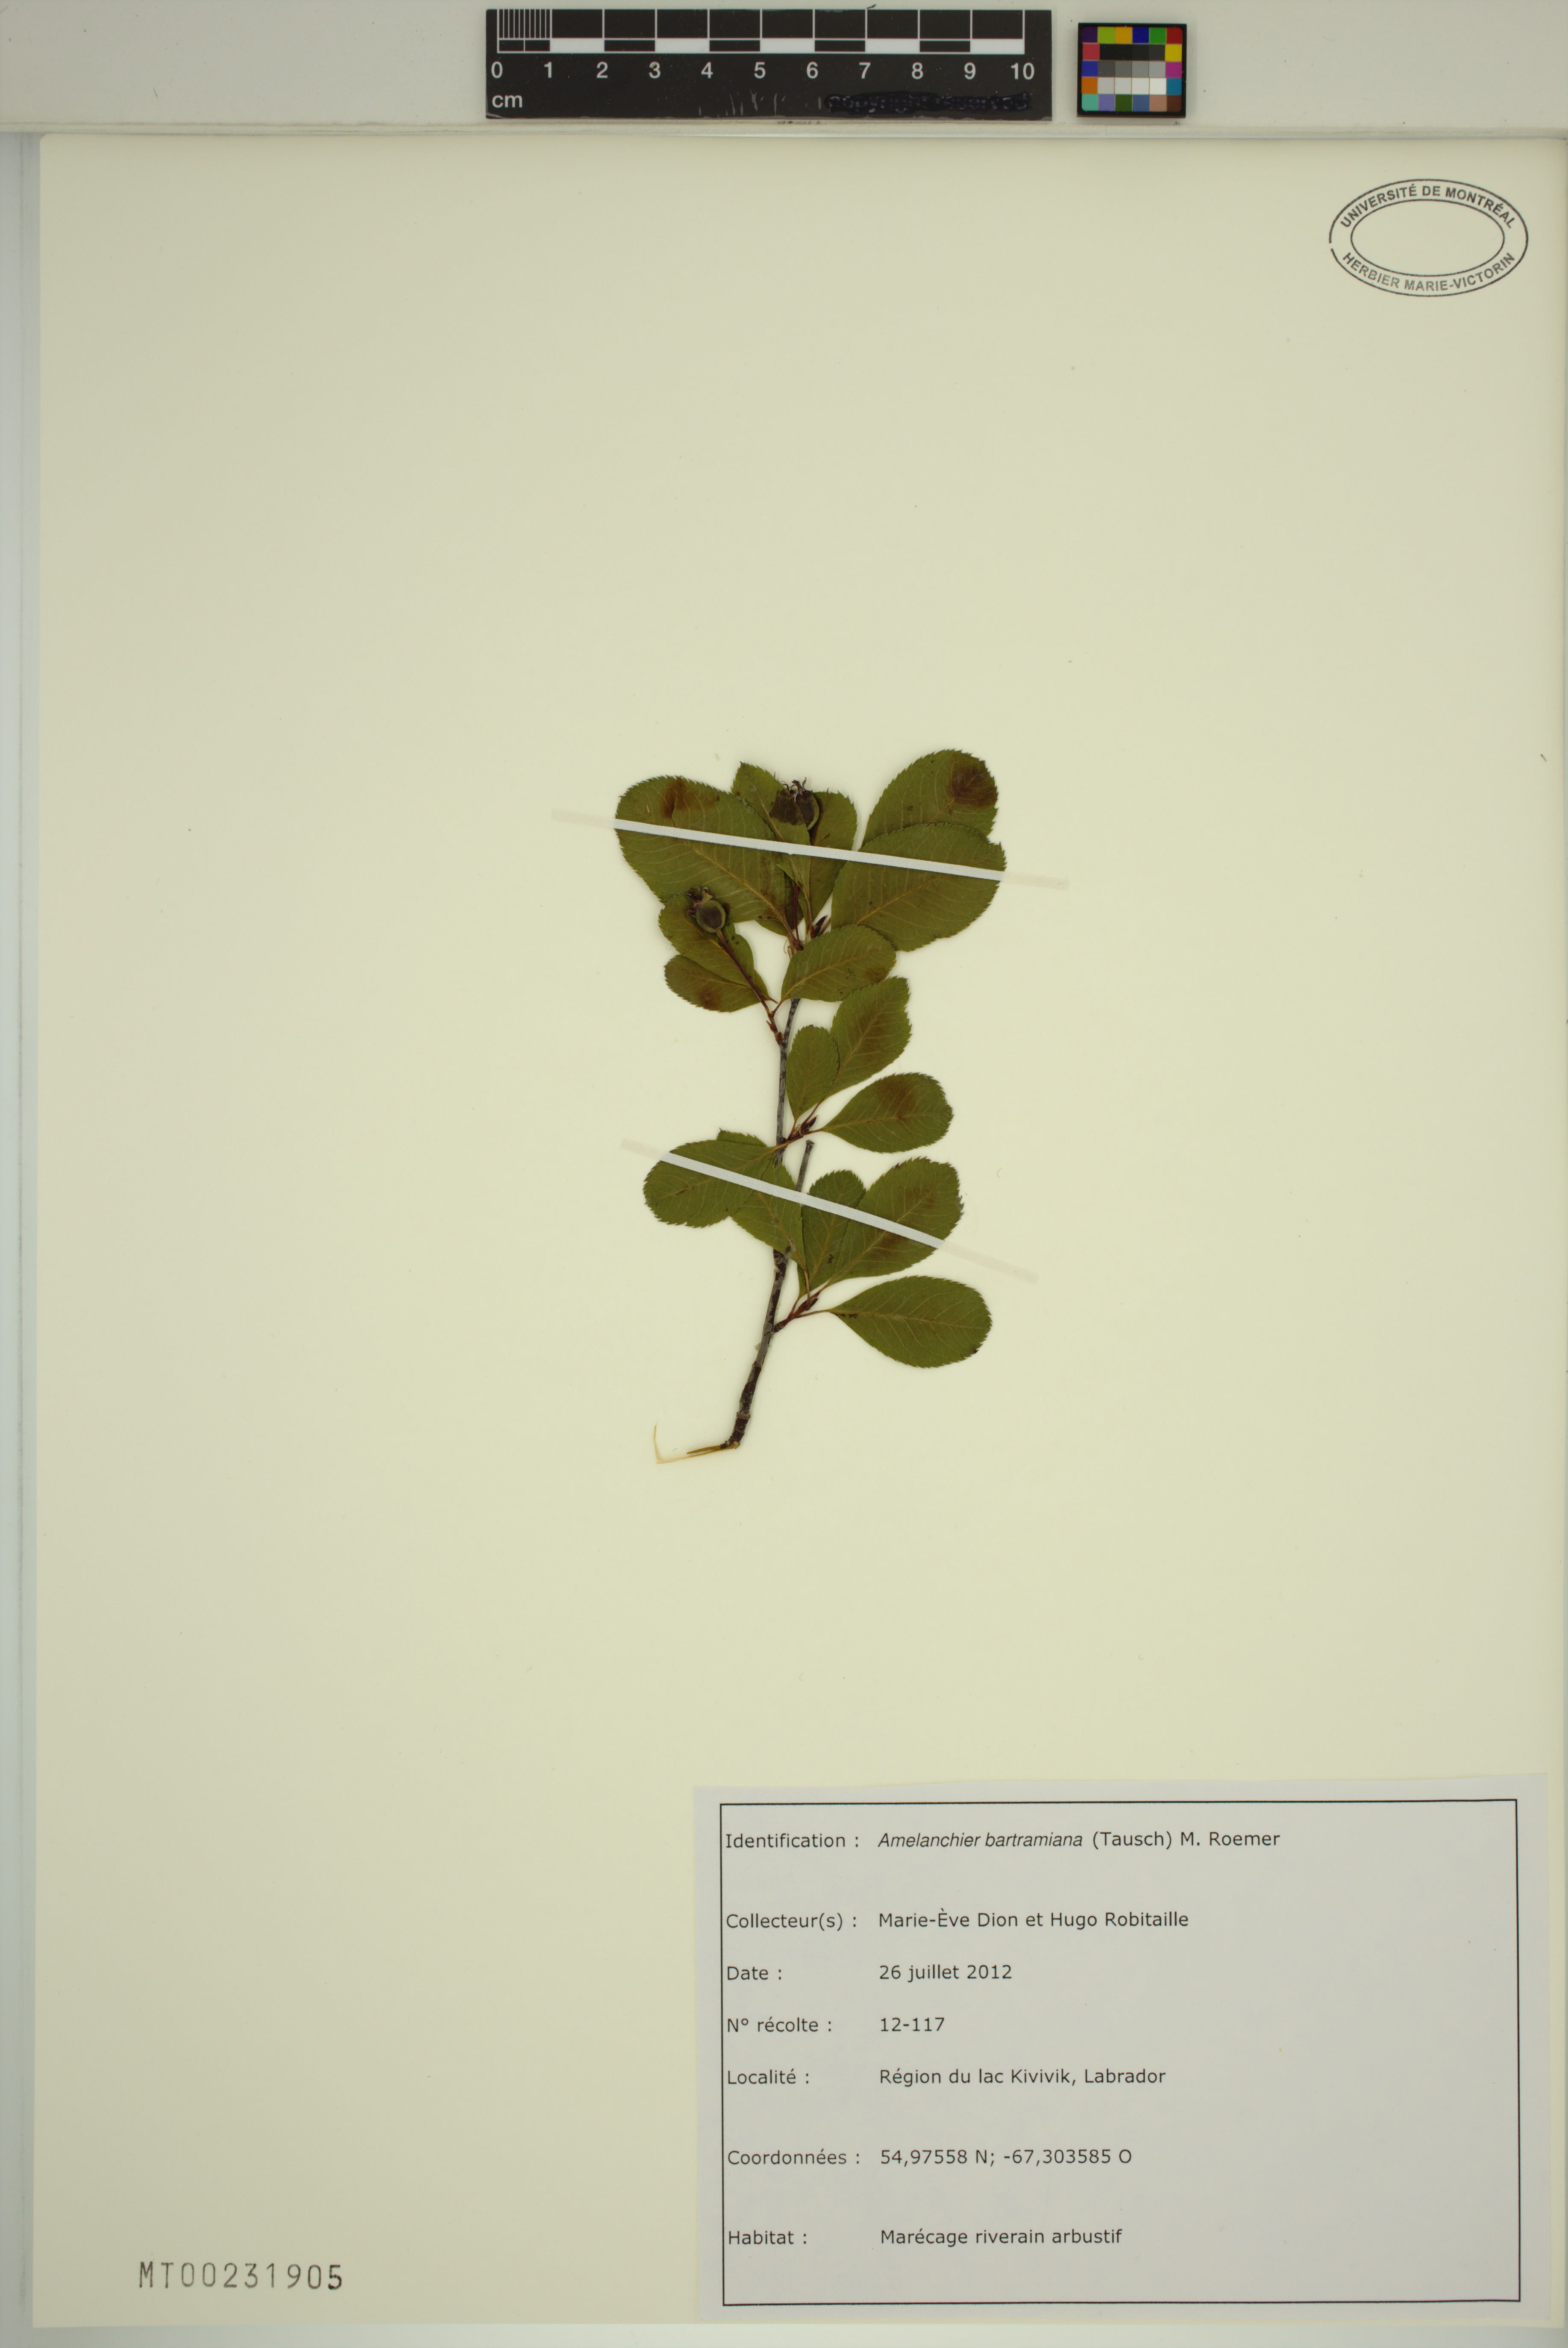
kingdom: Plantae
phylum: Tracheophyta
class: Magnoliopsida
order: Rosales
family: Rosaceae
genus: Amelanchier
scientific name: Amelanchier bartramiana
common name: Mountain serviceberry
